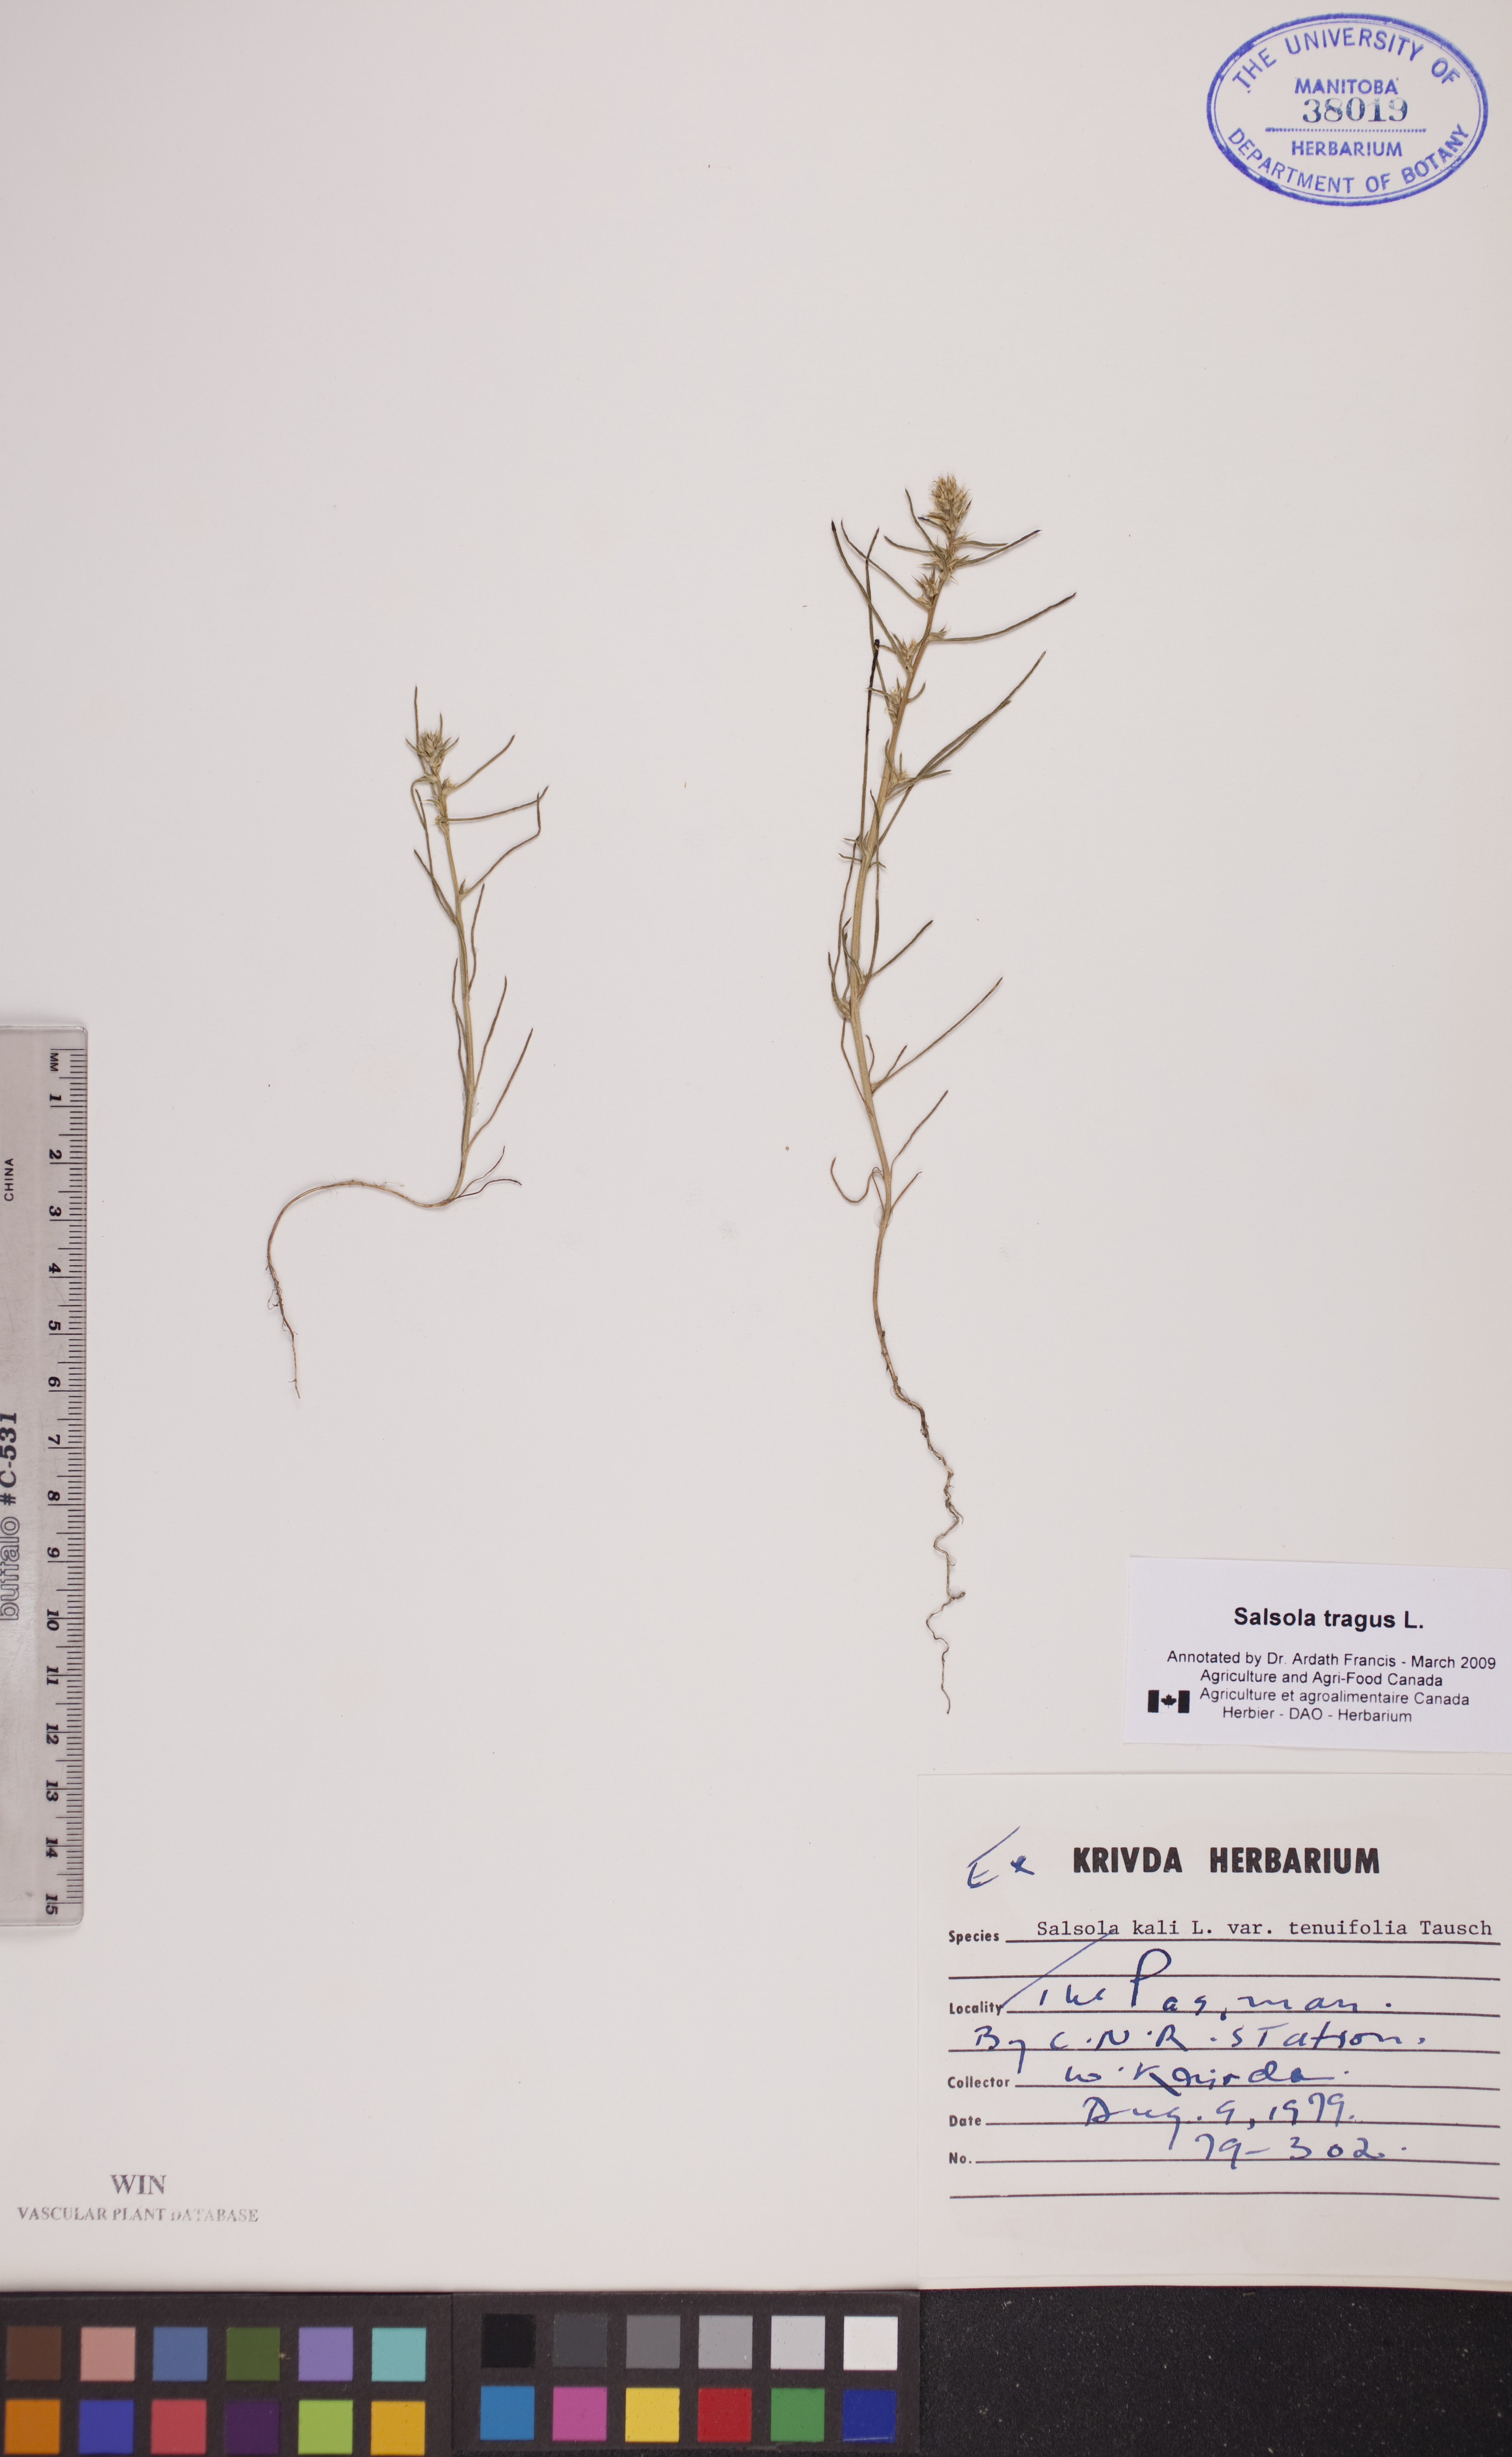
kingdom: Plantae
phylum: Tracheophyta
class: Magnoliopsida
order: Caryophyllales
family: Amaranthaceae
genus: Salsola
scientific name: Salsola tragus
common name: Prickly russian thistle
